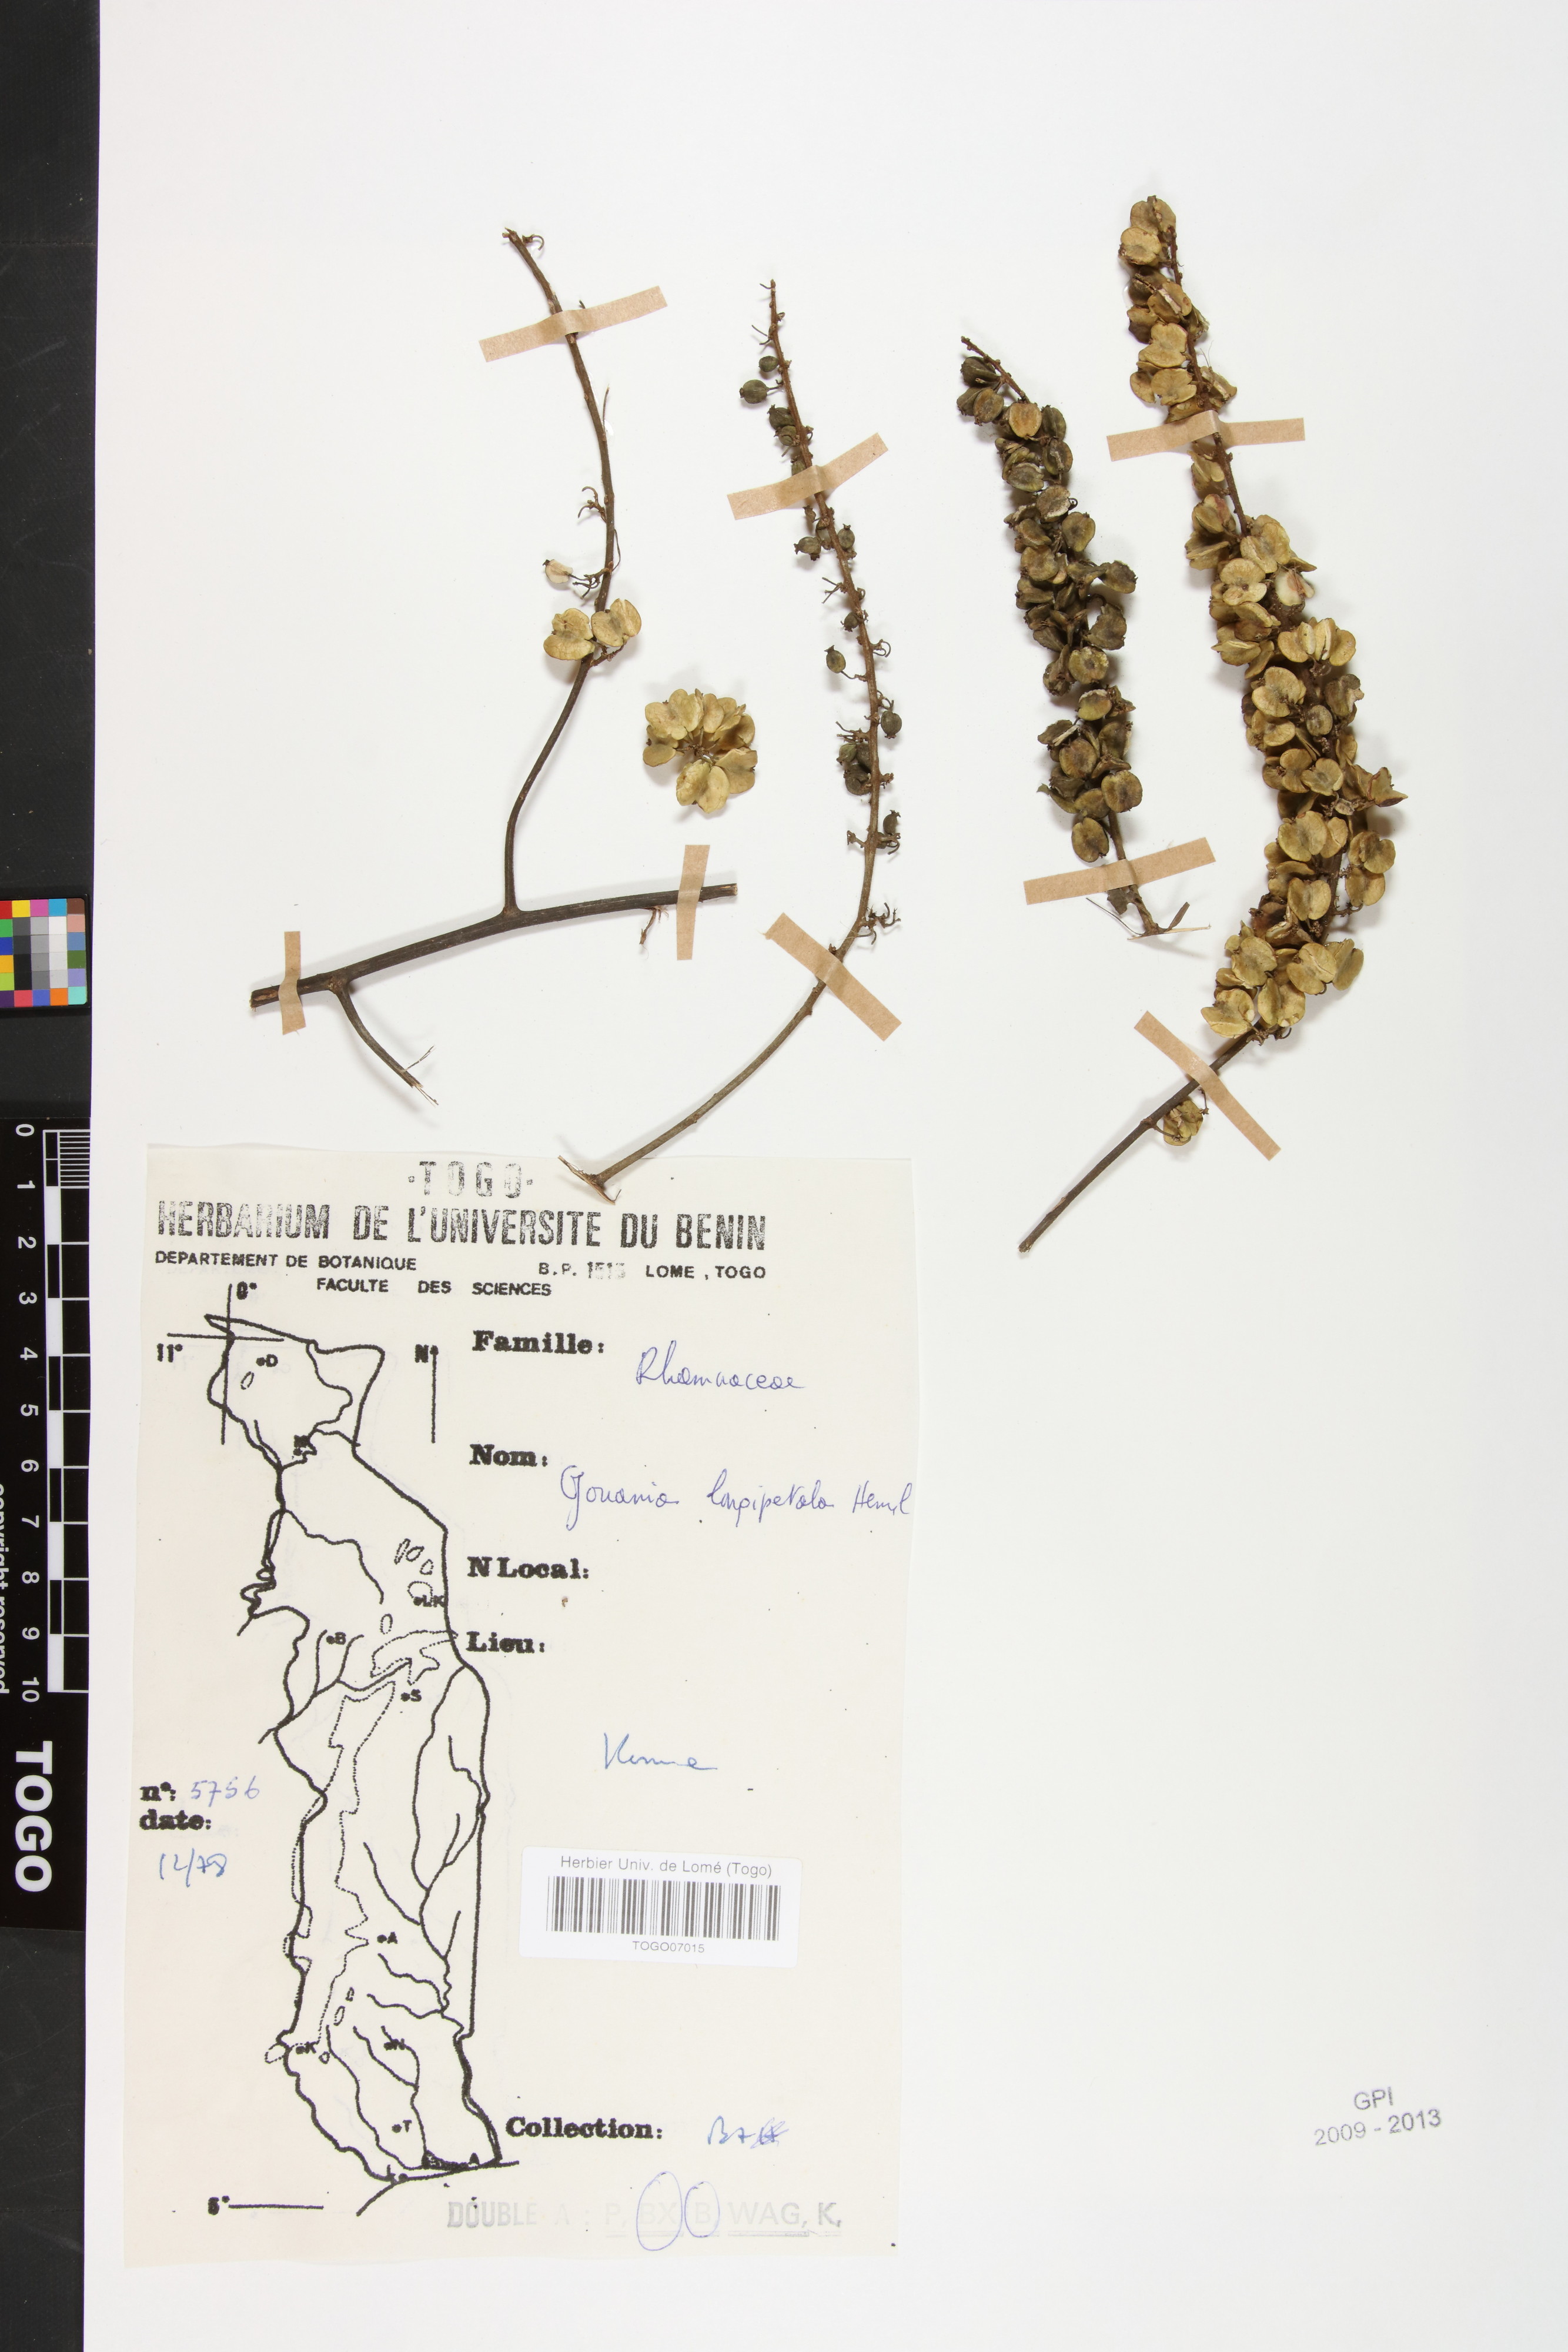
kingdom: Plantae
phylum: Tracheophyta
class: Magnoliopsida
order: Rosales
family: Rhamnaceae
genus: Gouania
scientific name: Gouania longipetala
